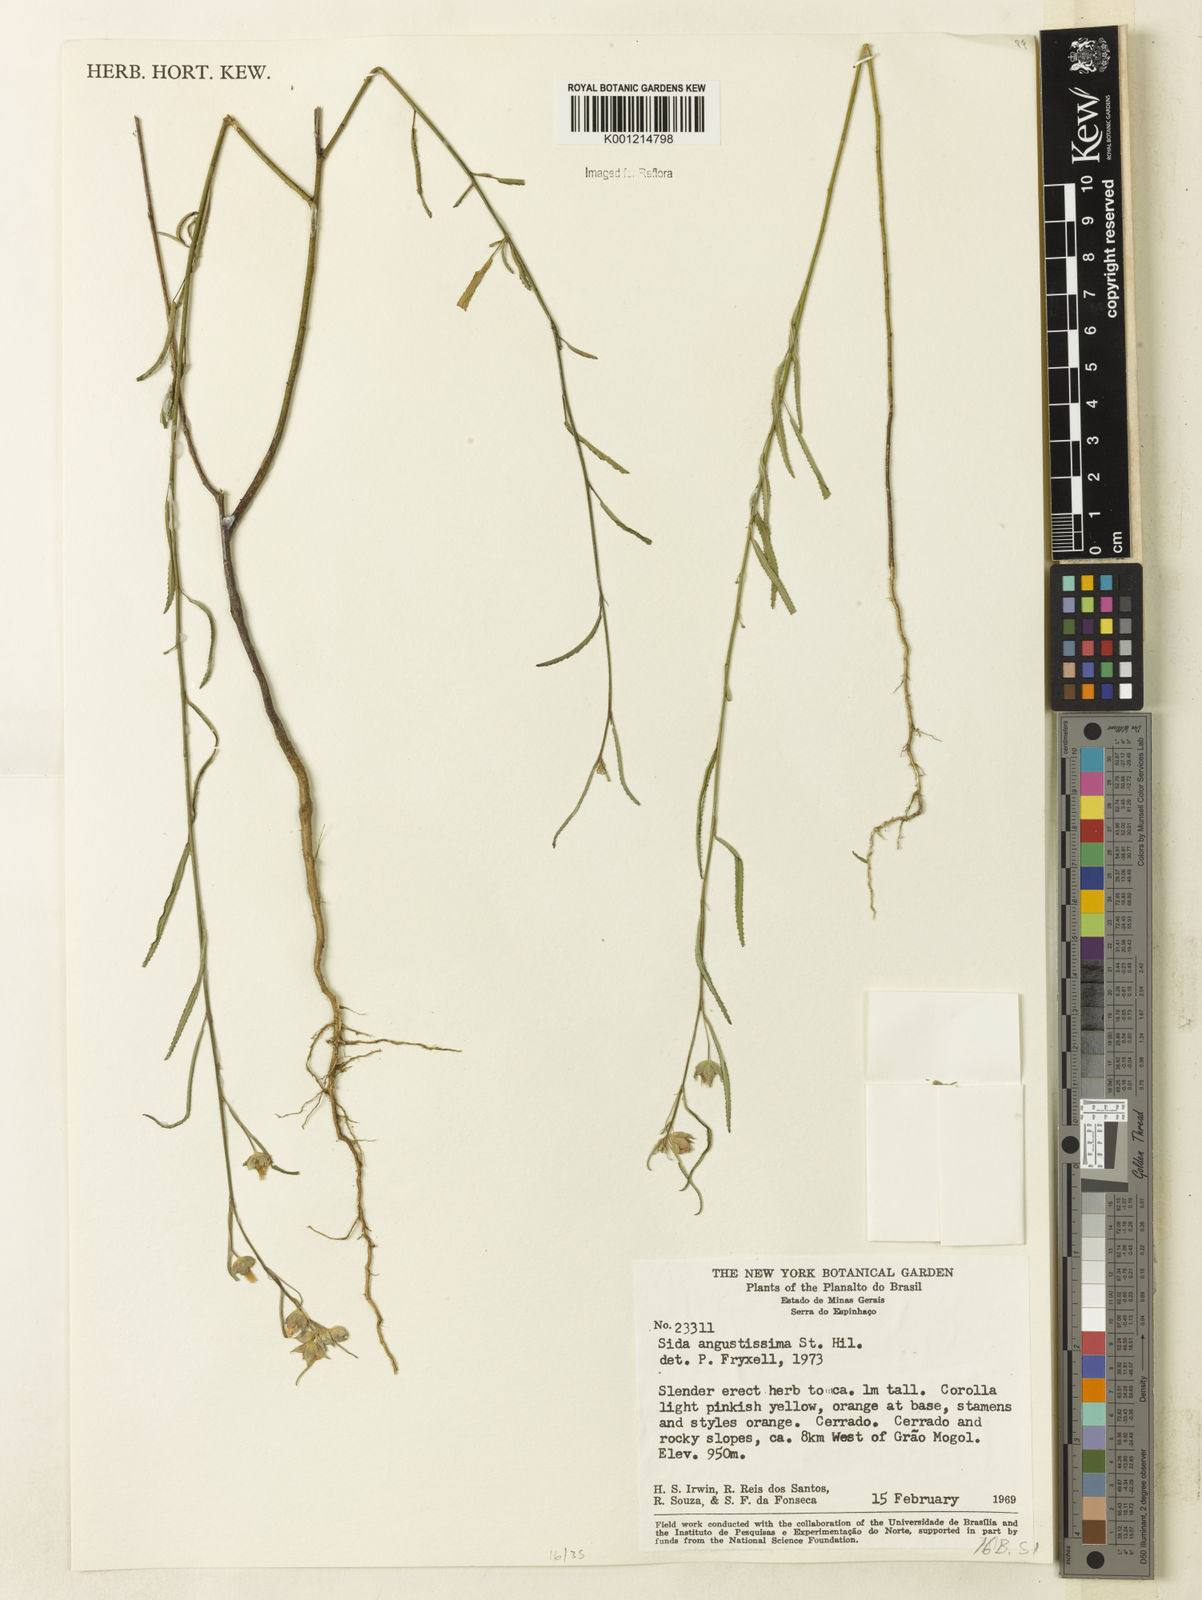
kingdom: Plantae
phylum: Tracheophyta
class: Magnoliopsida
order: Malvales
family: Malvaceae
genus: Sida
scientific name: Sida angustissima
